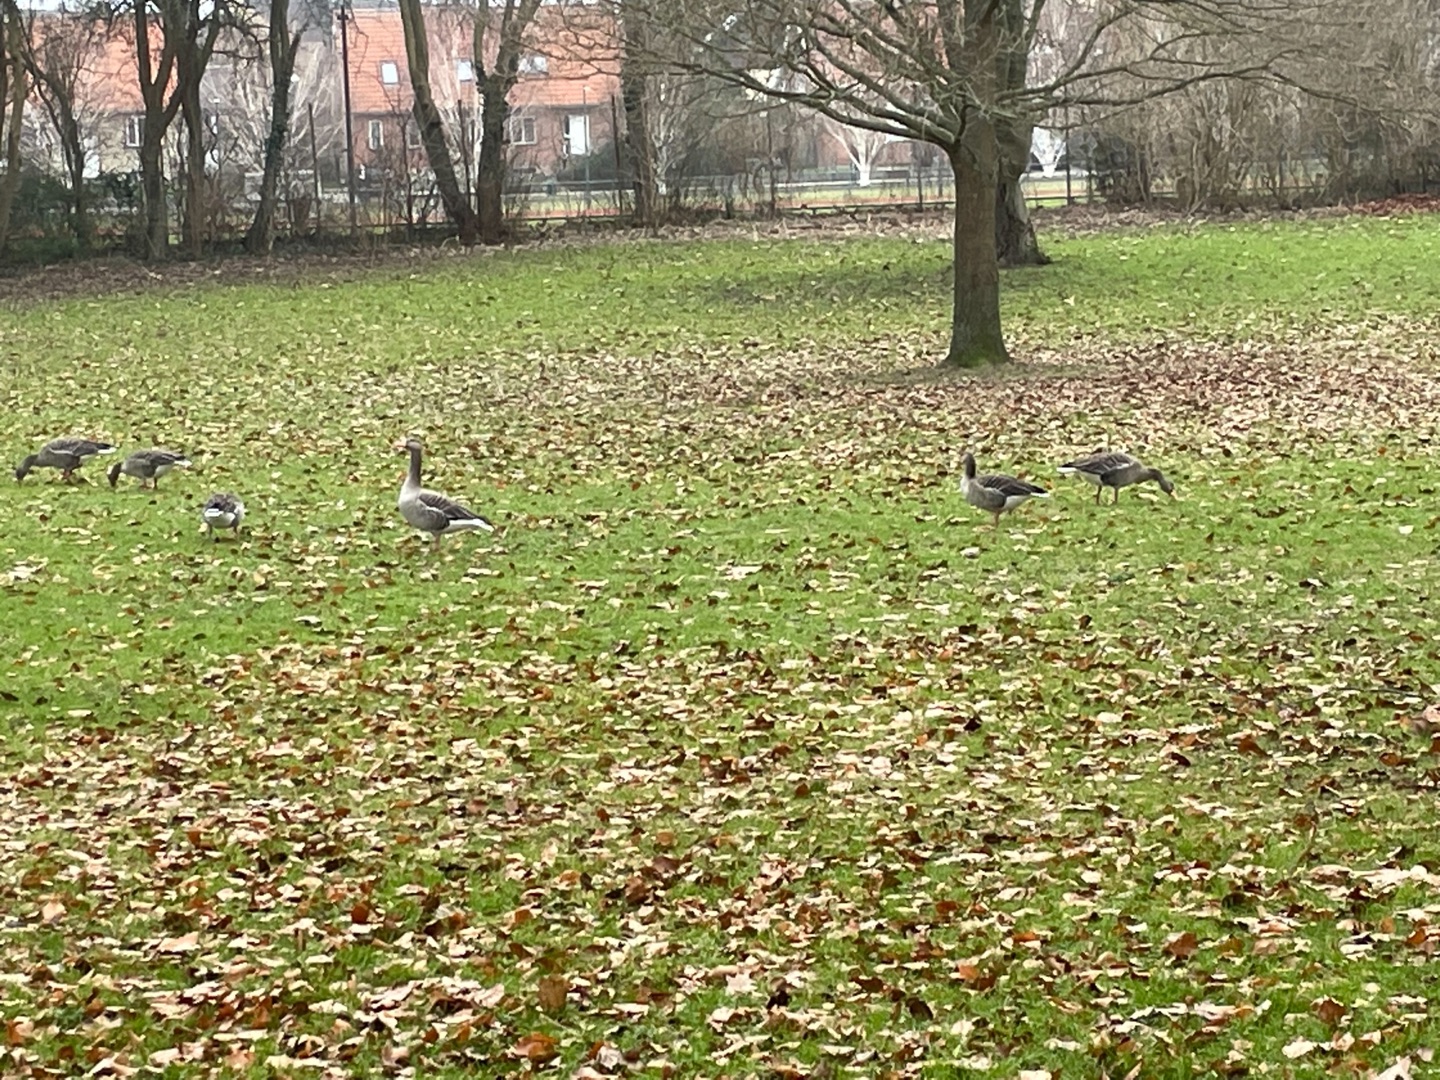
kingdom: Animalia
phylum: Chordata
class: Aves
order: Anseriformes
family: Anatidae
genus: Anser
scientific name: Anser anser
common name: Grågås
